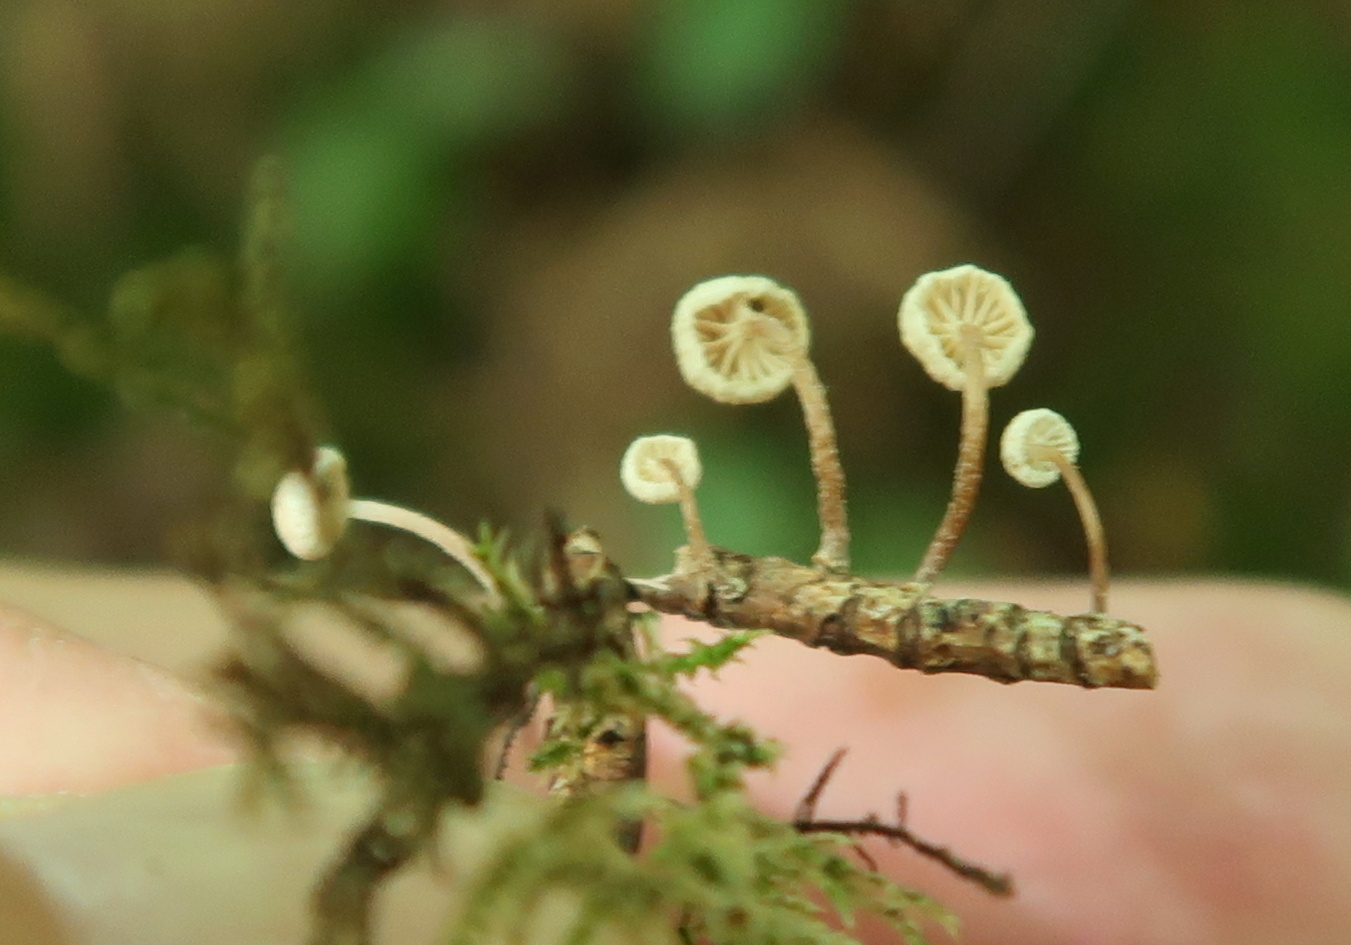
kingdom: Fungi
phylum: Basidiomycota
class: Agaricomycetes
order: Agaricales
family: Omphalotaceae
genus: Collybiopsis
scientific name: Collybiopsis ramealis
